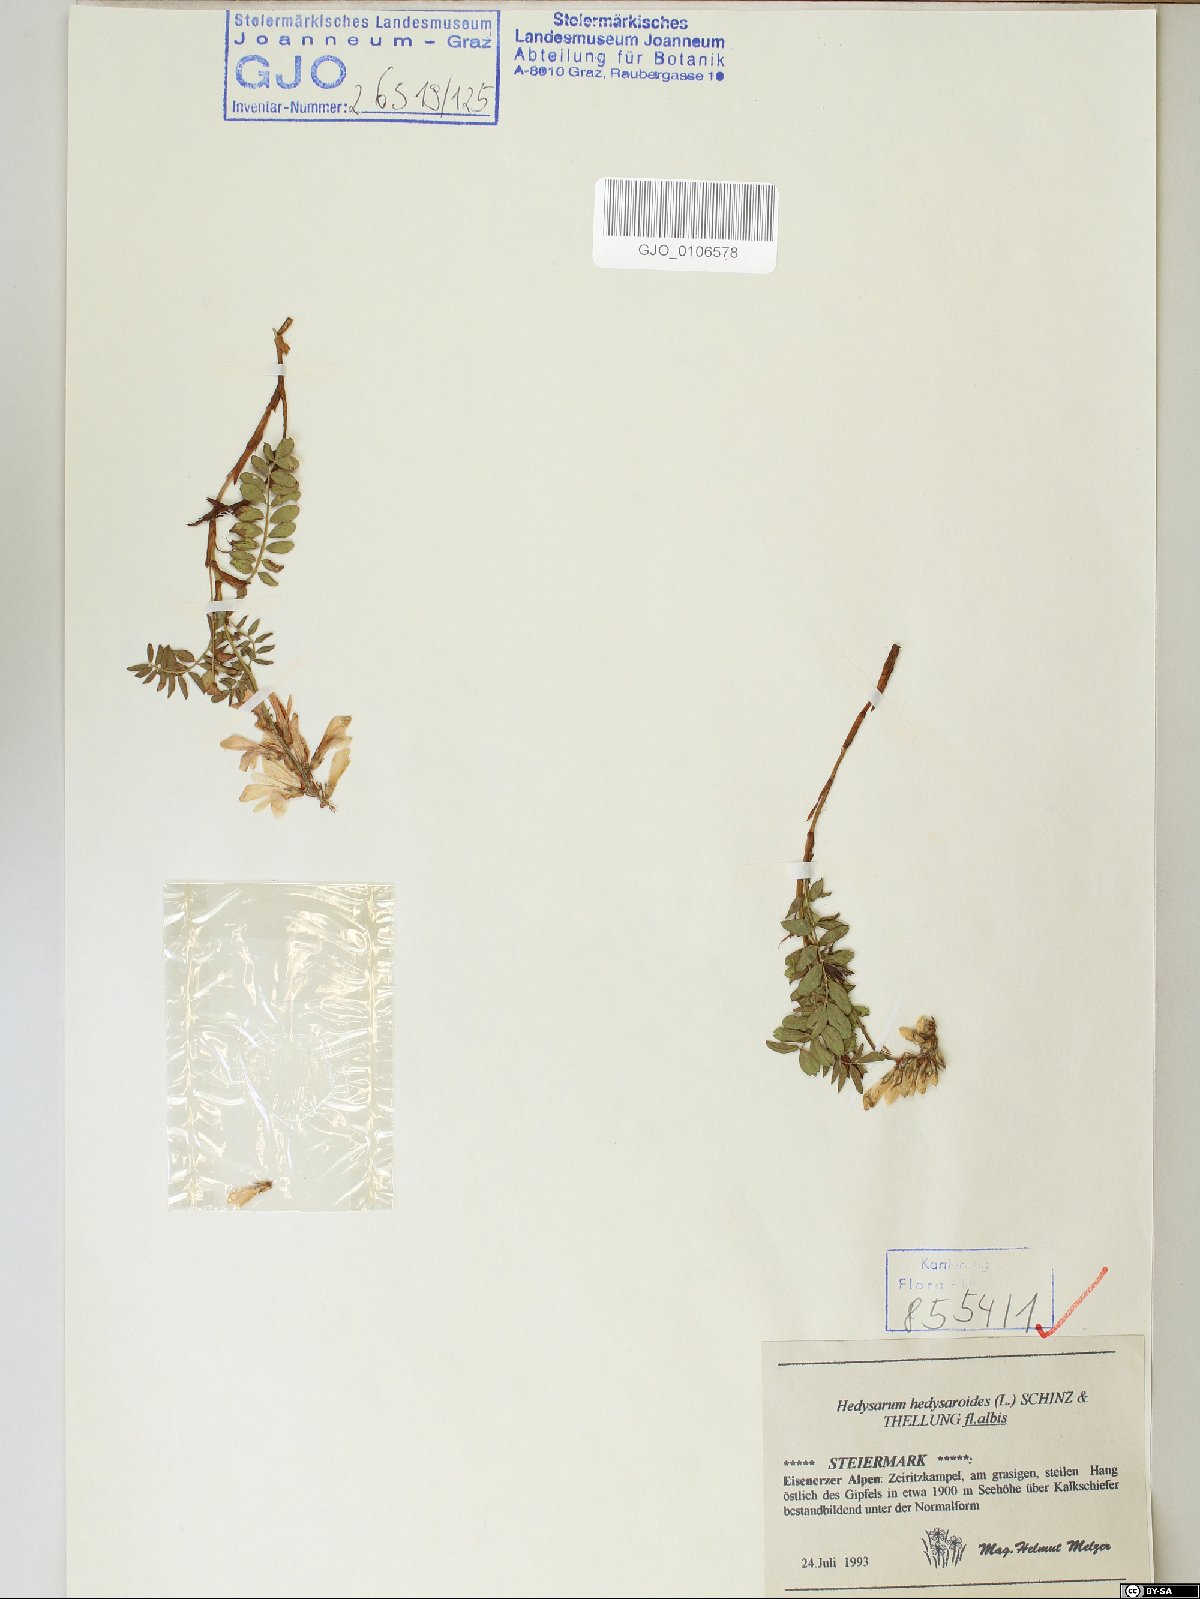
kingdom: Plantae
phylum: Tracheophyta
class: Magnoliopsida
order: Fabales
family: Fabaceae
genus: Hedysarum
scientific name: Hedysarum hedysaroides
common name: Alpine french-honeysuckle
